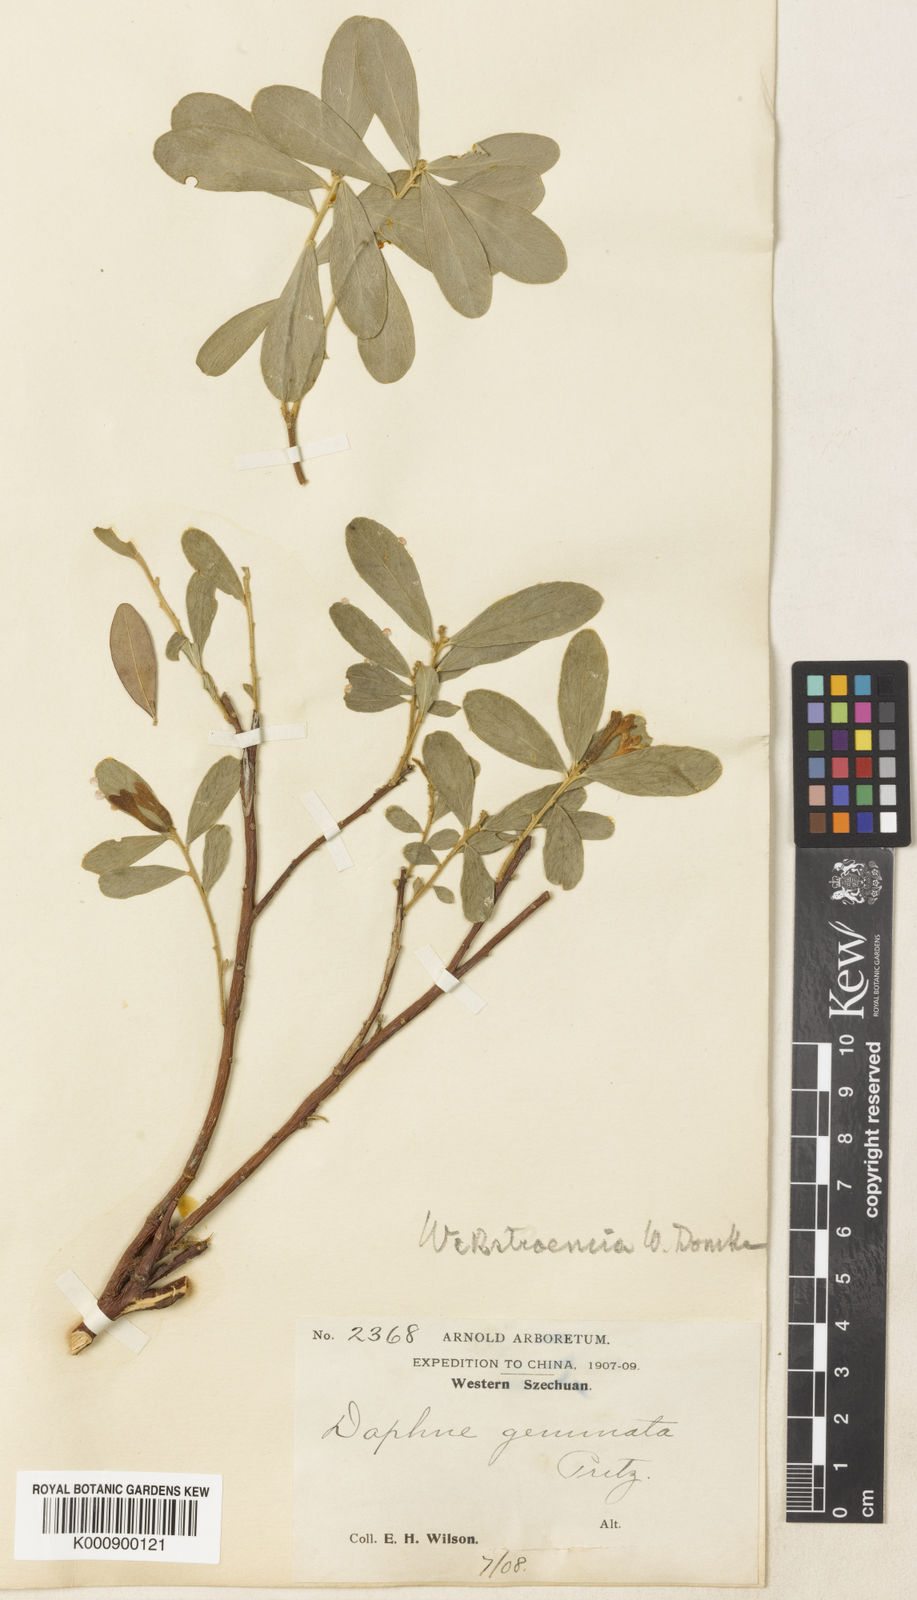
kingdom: Plantae
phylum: Tracheophyta
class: Magnoliopsida
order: Malvales
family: Thymelaeaceae
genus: Daphne
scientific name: Daphne
